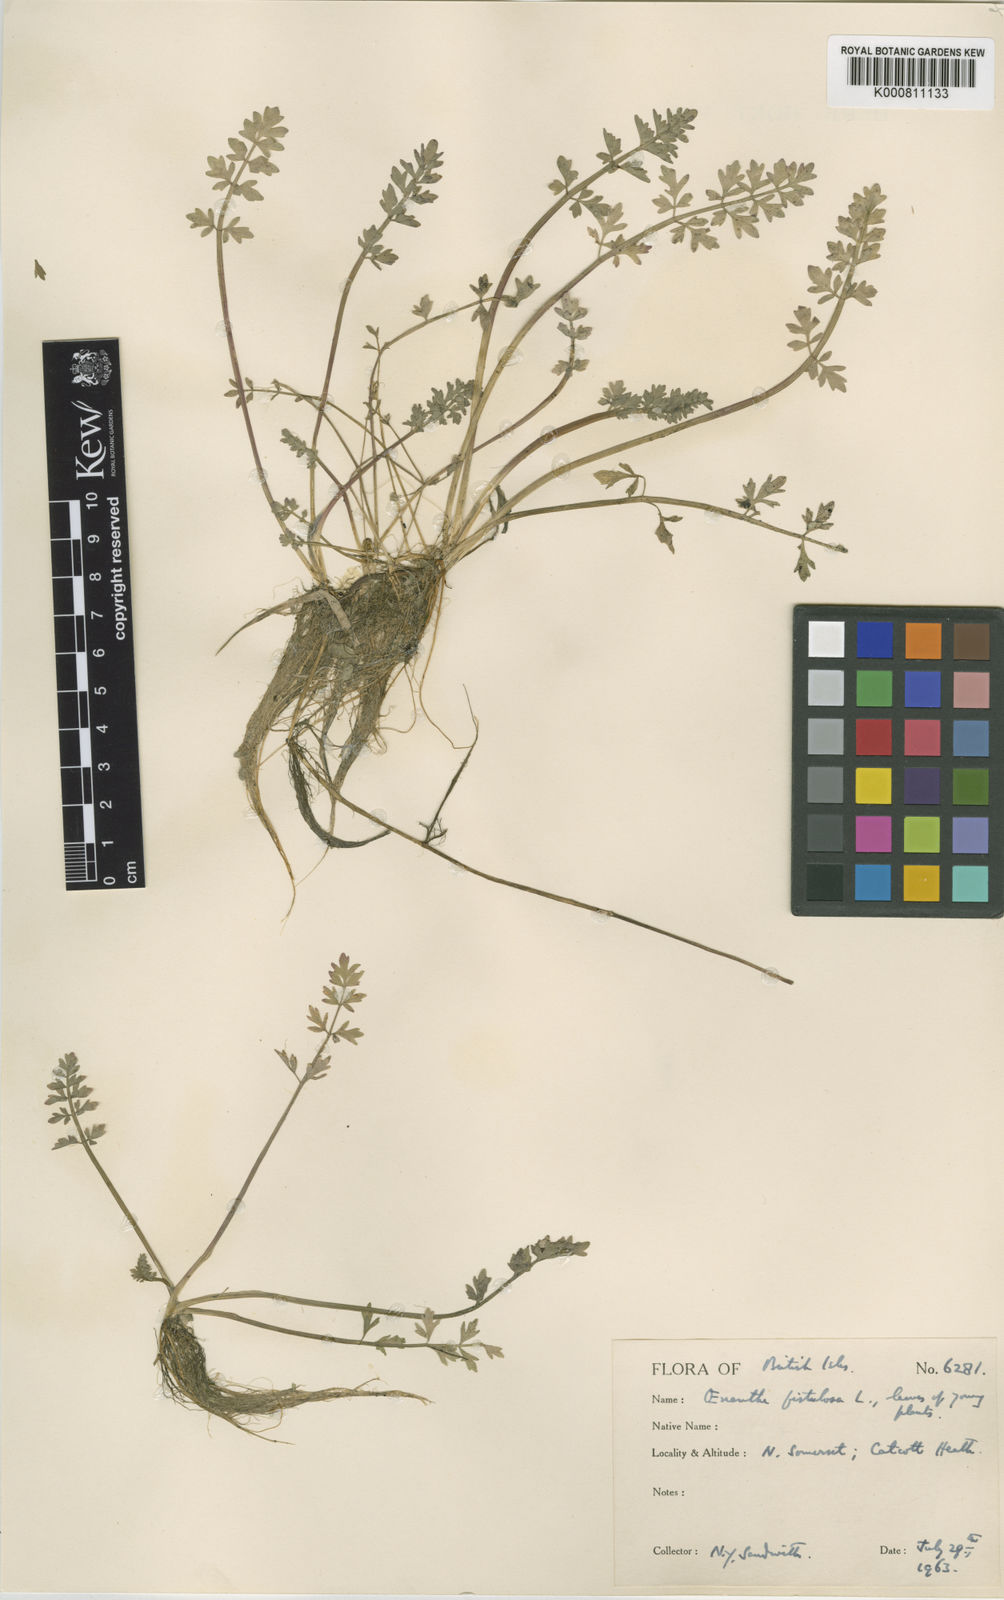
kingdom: Plantae
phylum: Tracheophyta
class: Magnoliopsida
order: Apiales
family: Apiaceae
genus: Oenanthe
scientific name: Oenanthe fistulosa
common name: Tubular water-dropwort
